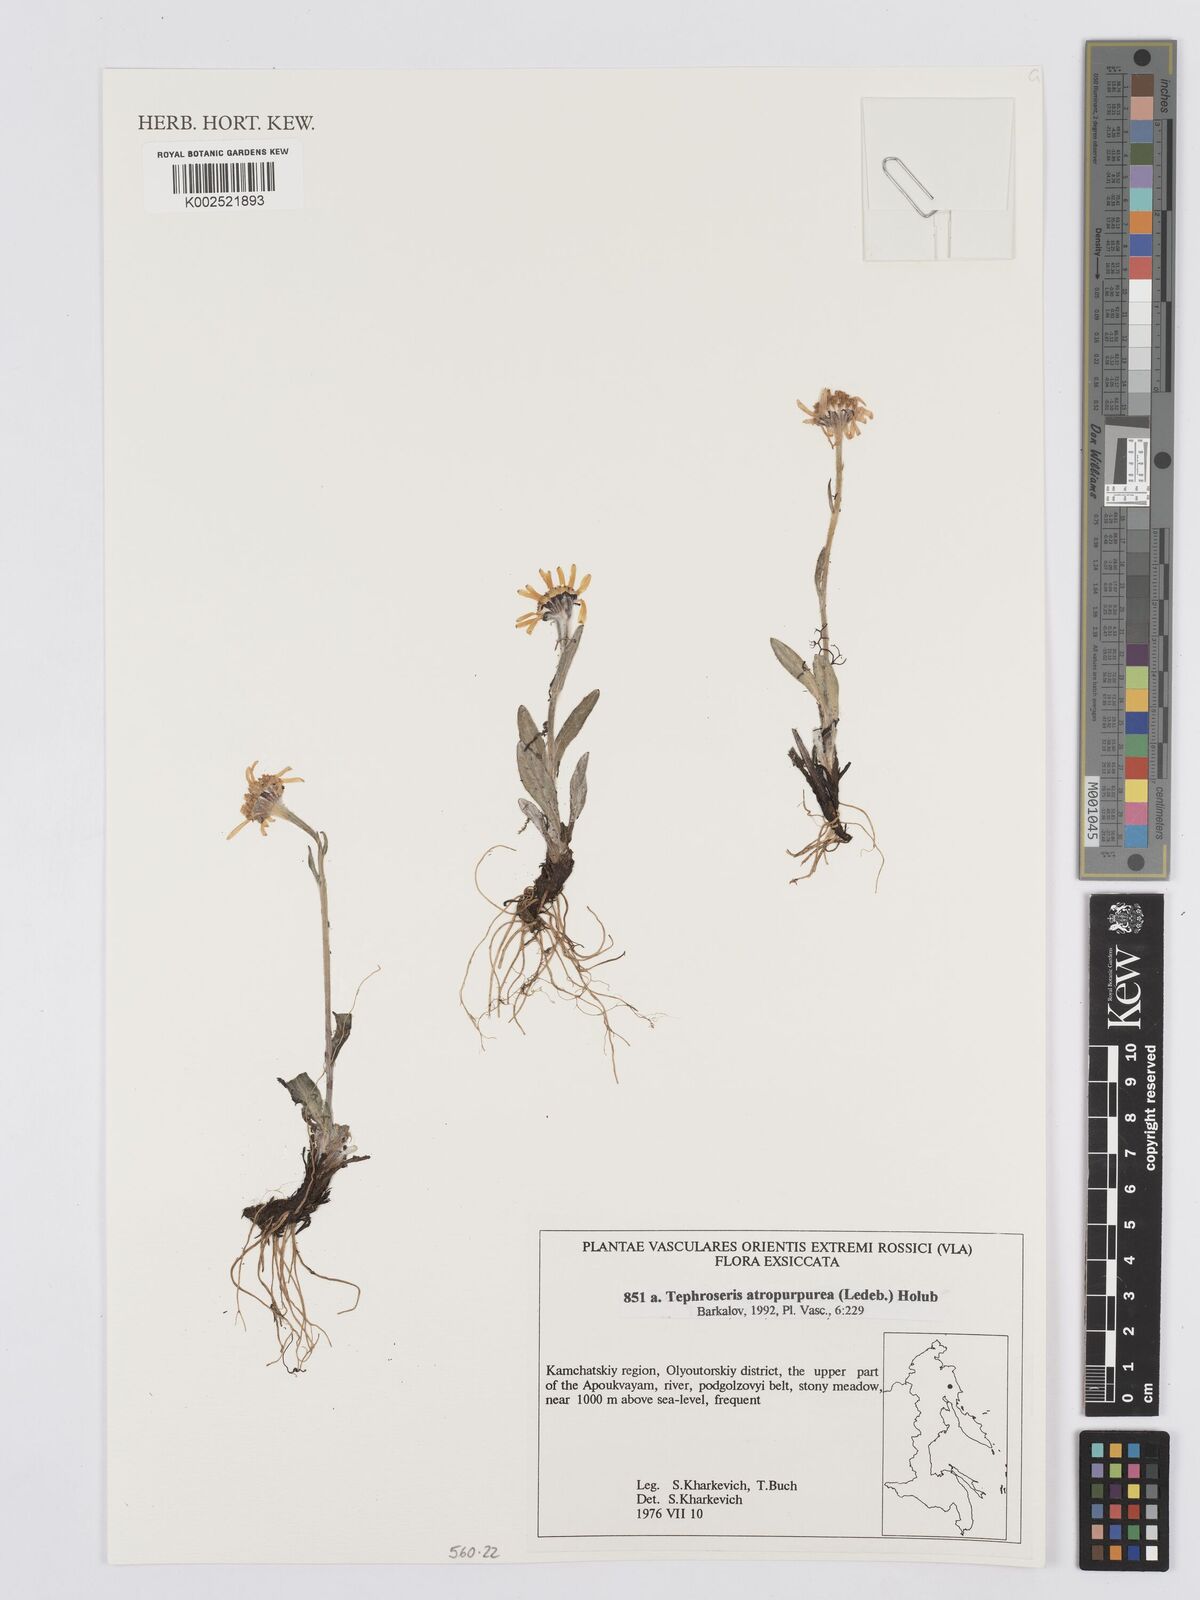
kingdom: Plantae
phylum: Tracheophyta
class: Magnoliopsida
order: Asterales
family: Asteraceae
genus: Tephroseris
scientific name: Tephroseris integrifolia
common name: Field fleawort
